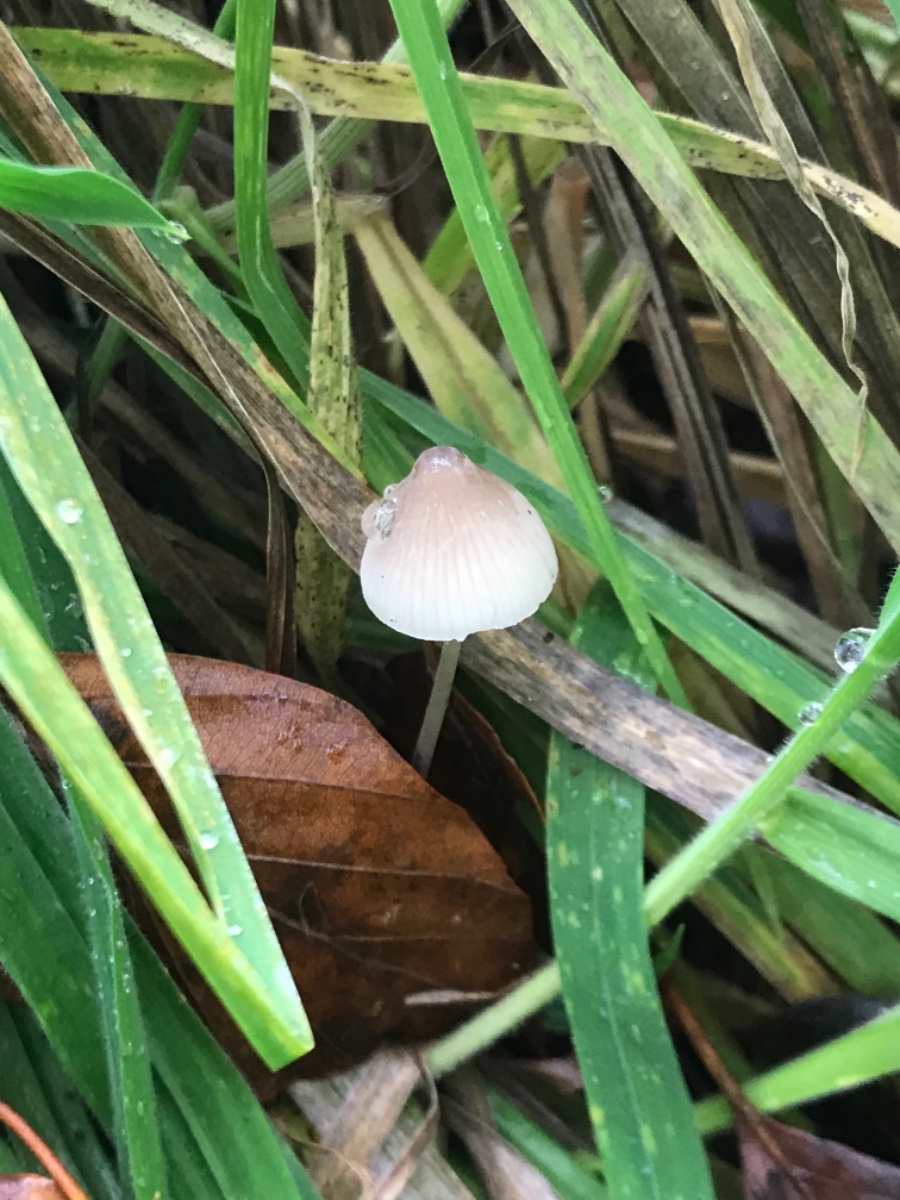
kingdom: Fungi
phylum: Basidiomycota
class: Agaricomycetes
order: Agaricales
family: Mycenaceae
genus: Mycena
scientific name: Mycena filopes
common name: jod-huesvamp
